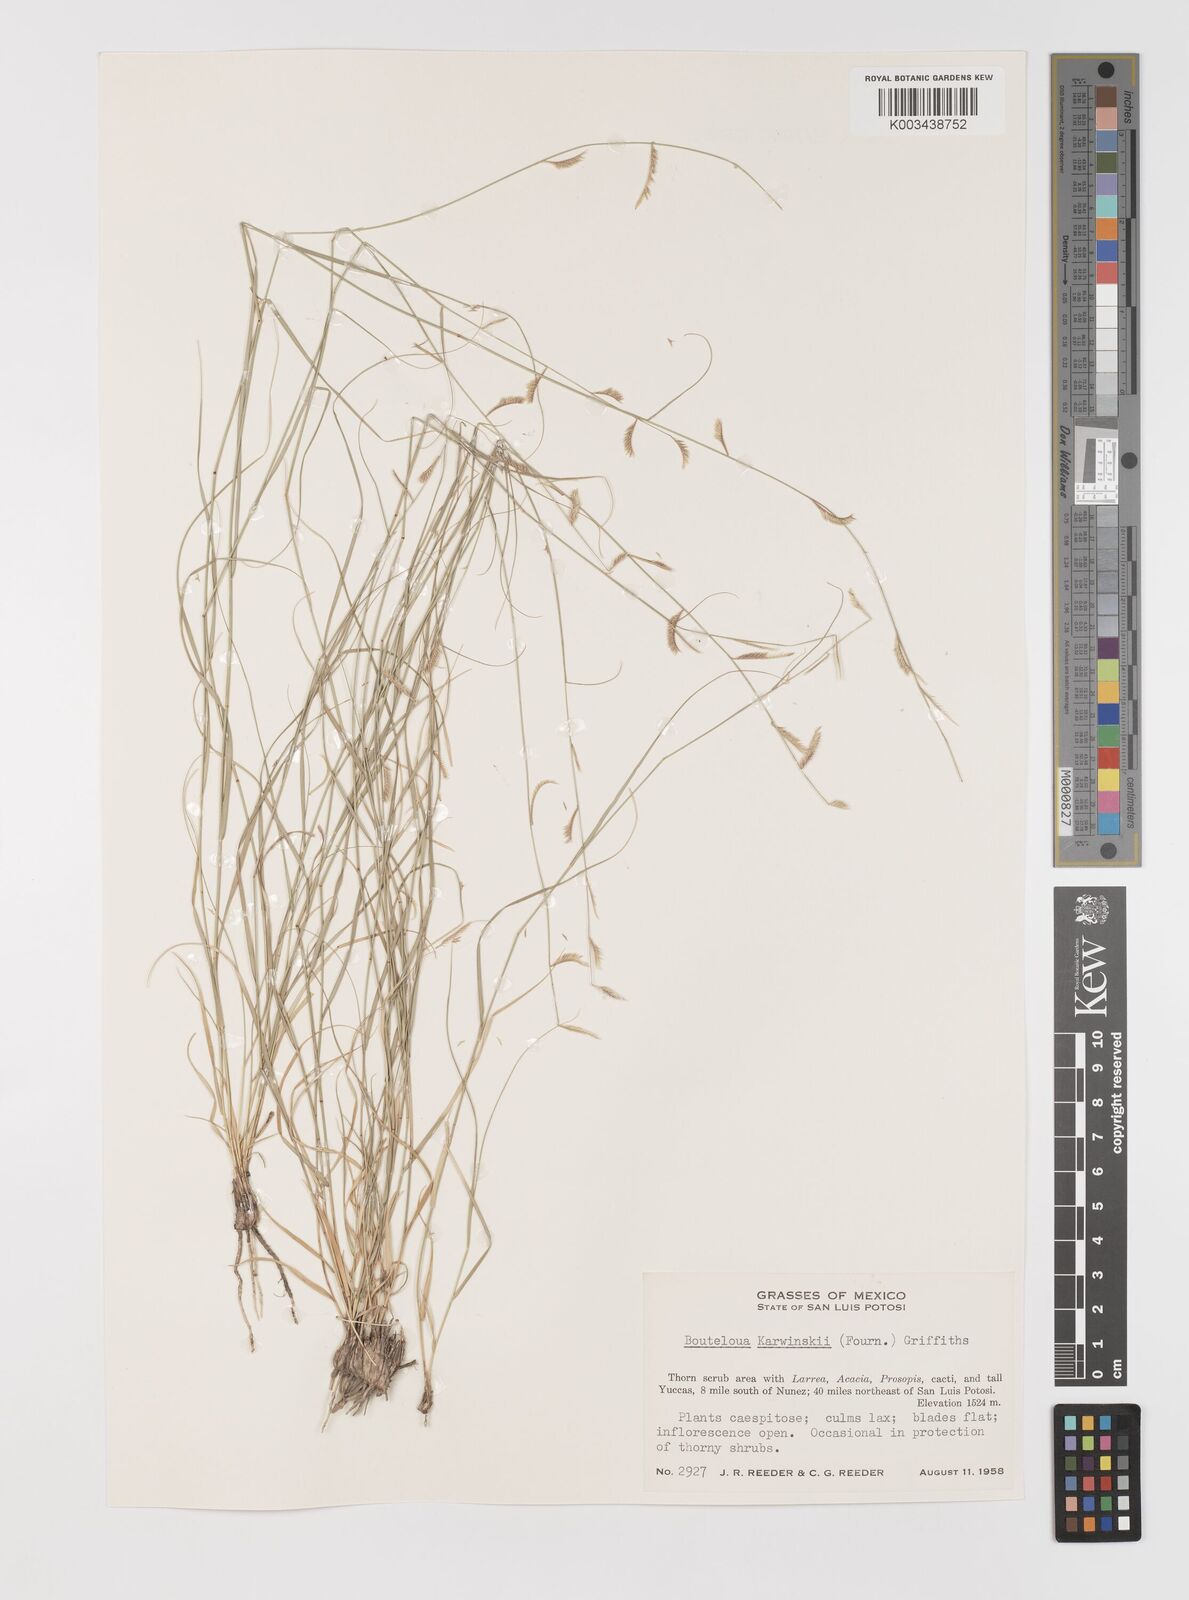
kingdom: Plantae
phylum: Tracheophyta
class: Liliopsida
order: Poales
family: Poaceae
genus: Bouteloua
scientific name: Bouteloua karwinskyi
